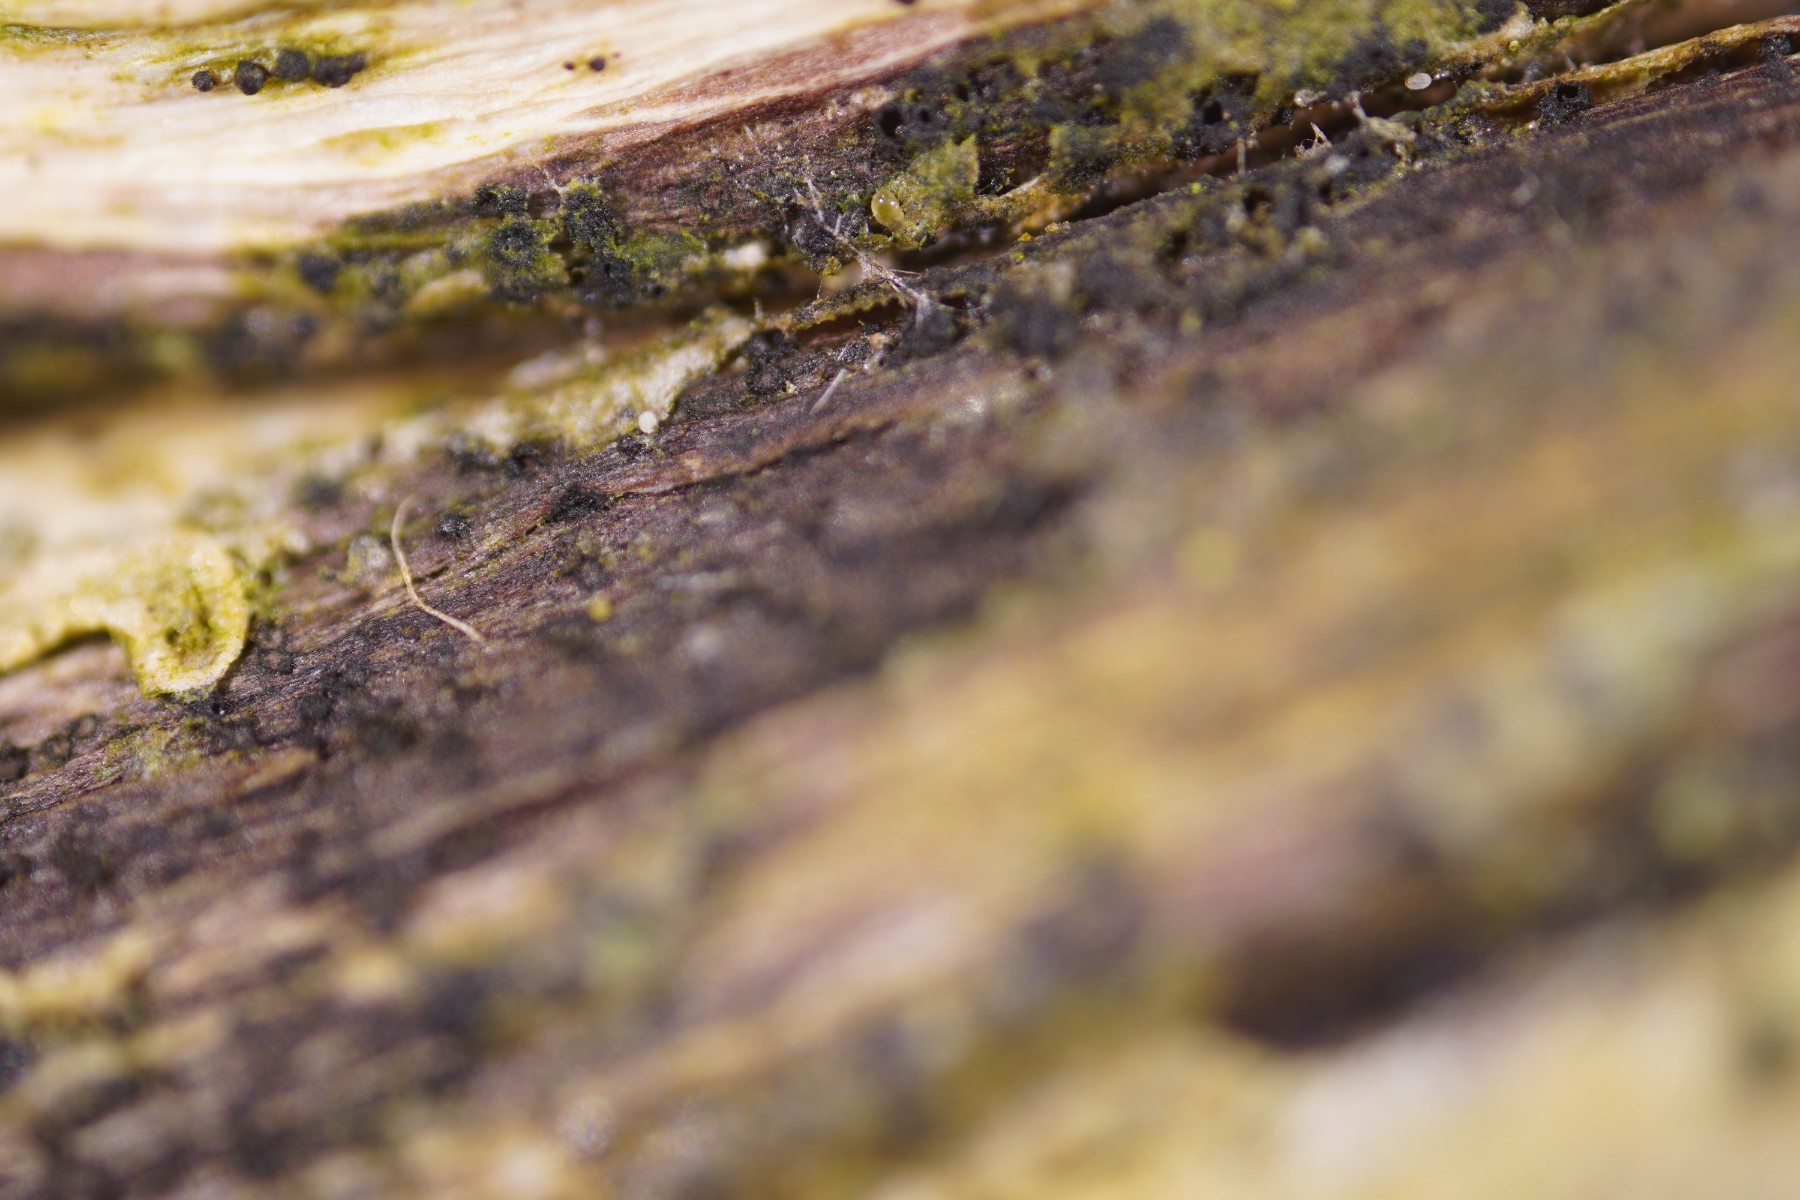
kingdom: Fungi
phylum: Ascomycota
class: Dothideomycetes
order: Pleosporales
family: Neocamarosporiaceae
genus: Neocamarosporium
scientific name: Neocamarosporium calvescens
